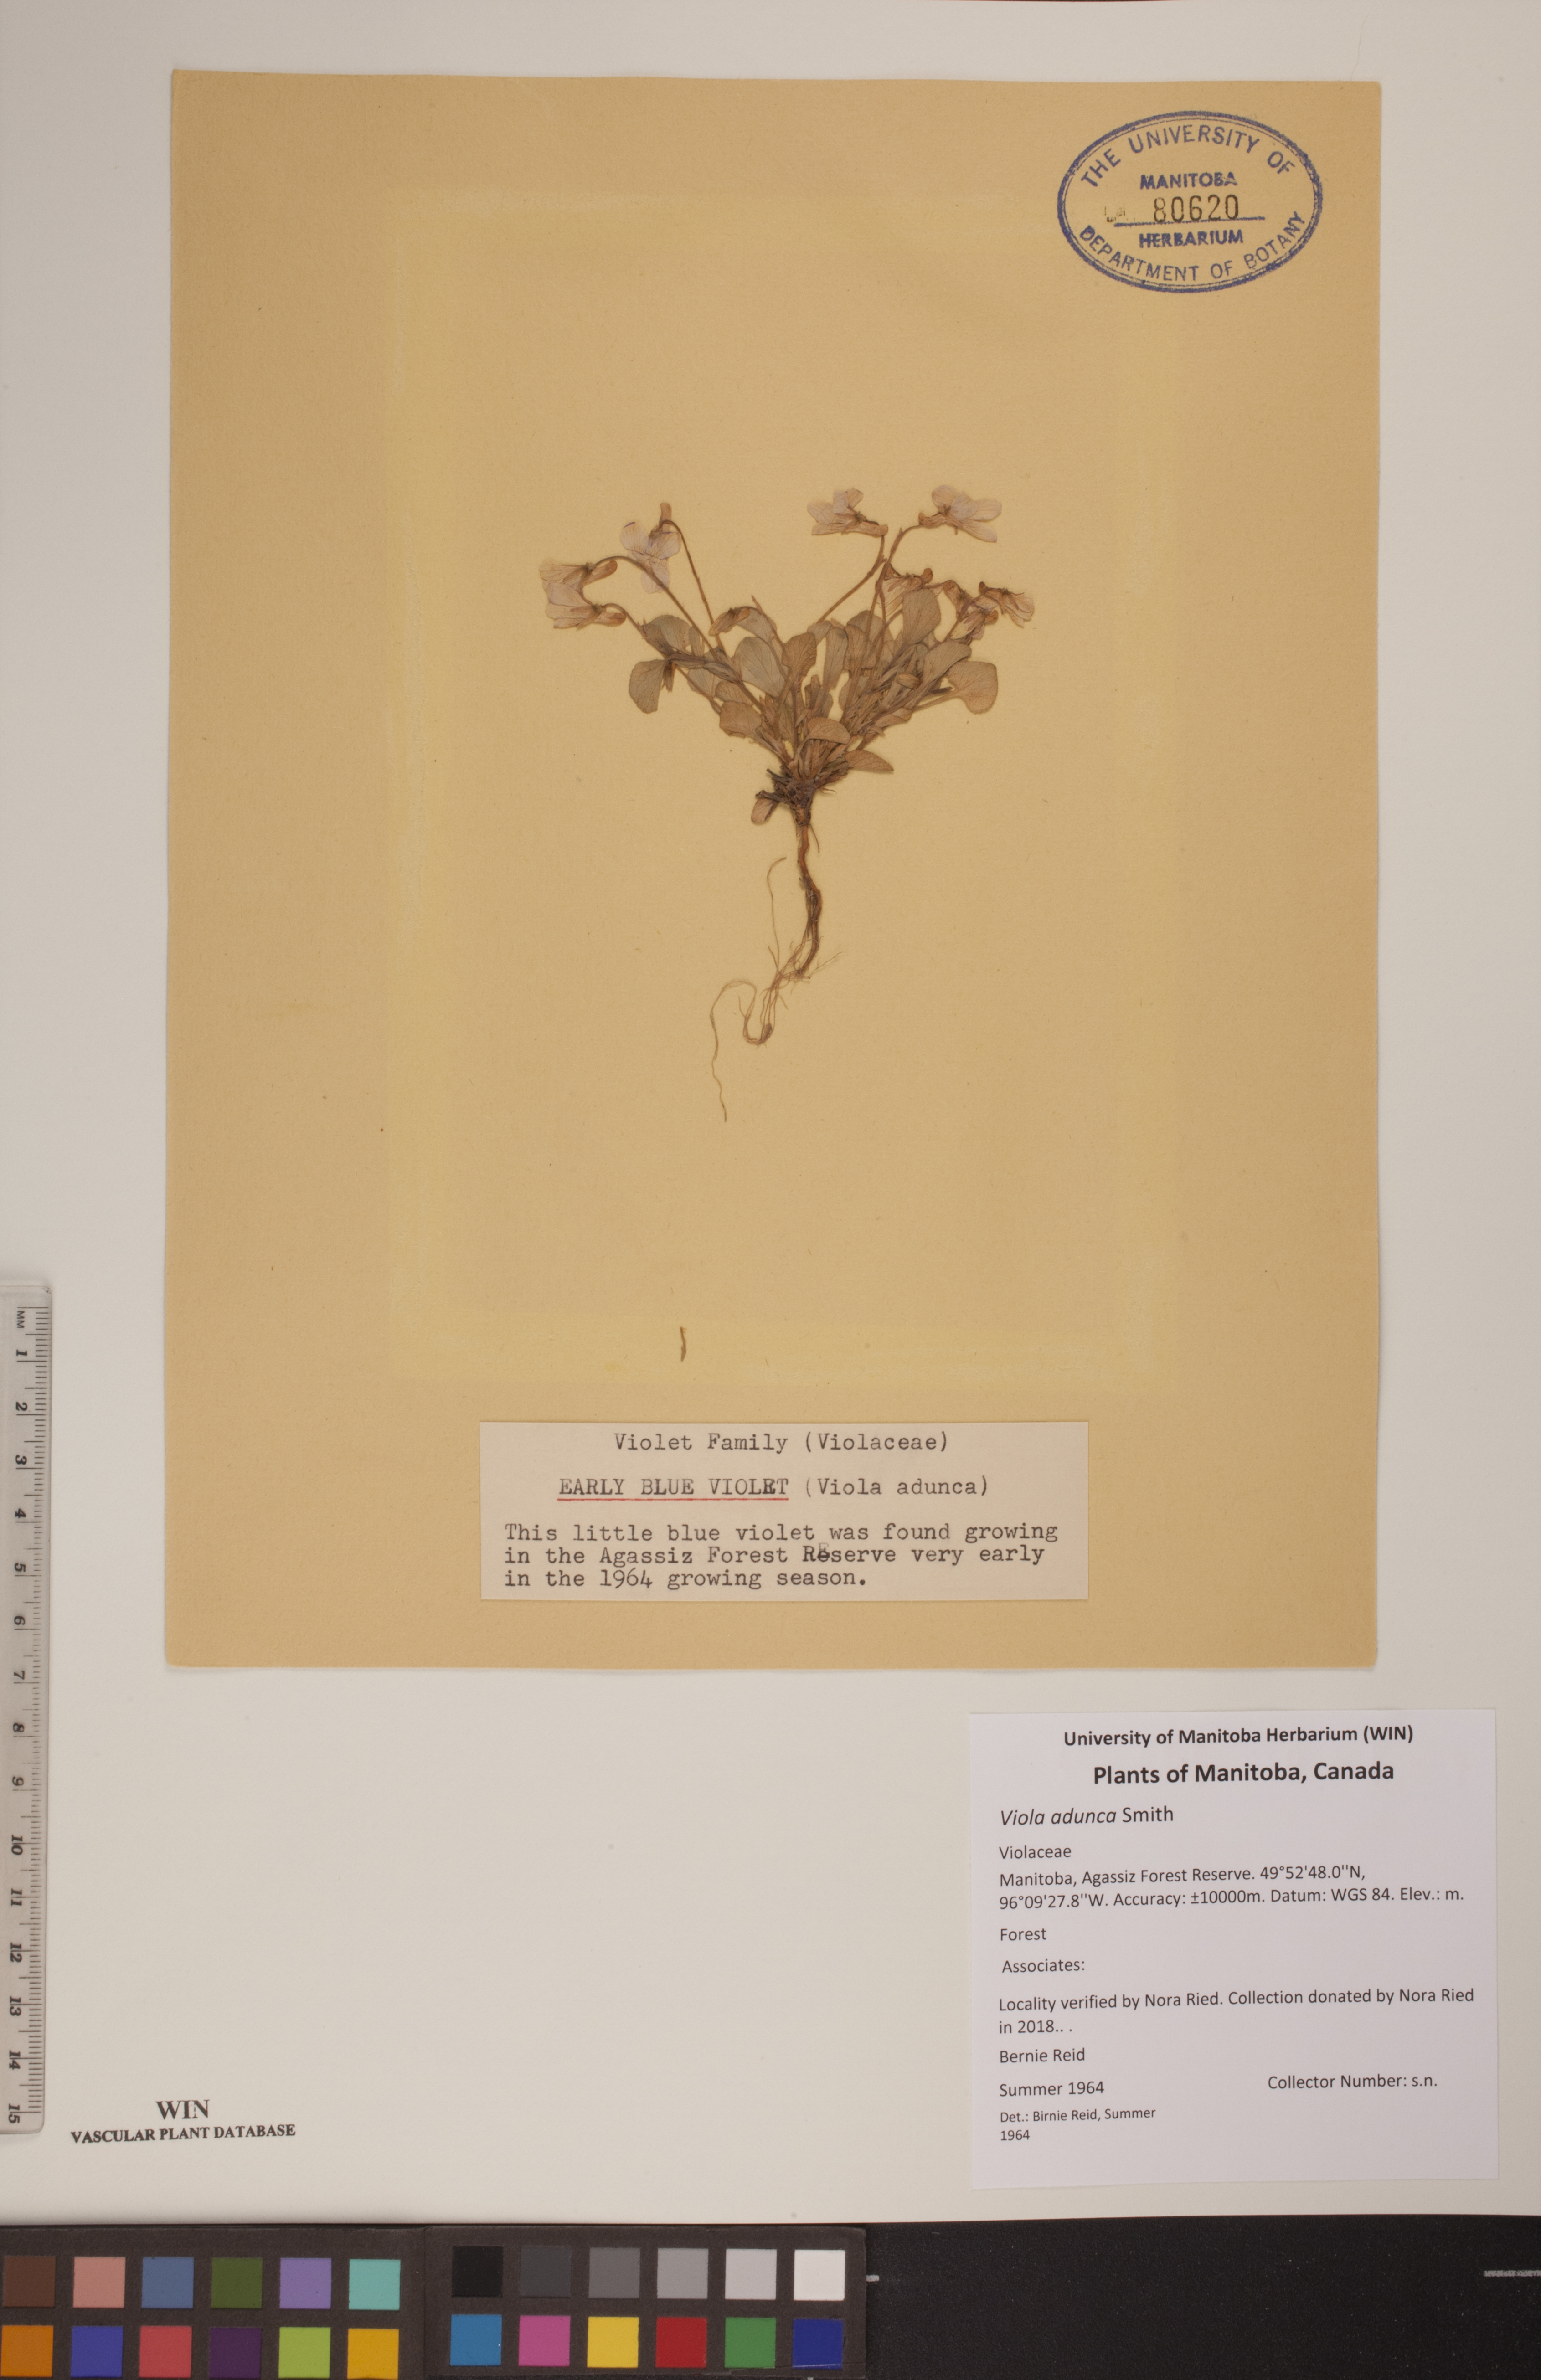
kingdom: Plantae
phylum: Tracheophyta
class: Magnoliopsida
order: Malpighiales
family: Violaceae
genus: Viola
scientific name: Viola adunca
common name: Sand violet
